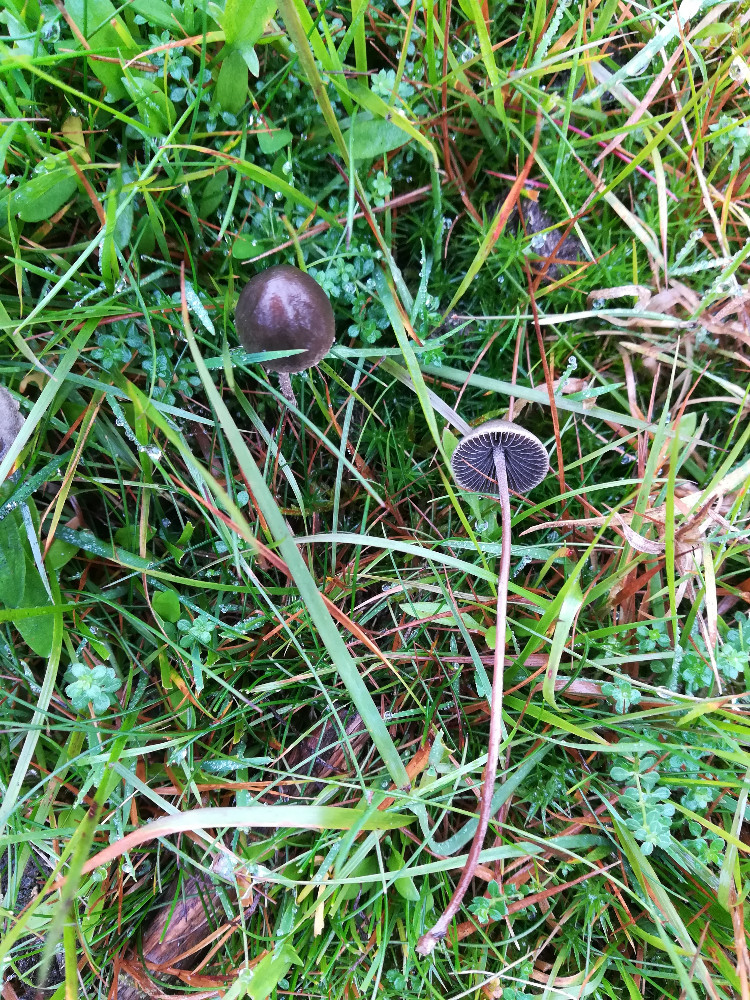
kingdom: Fungi
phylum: Basidiomycota
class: Agaricomycetes
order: Agaricales
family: Bolbitiaceae
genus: Panaeolus
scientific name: Panaeolus acuminatus
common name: høj glanshat
